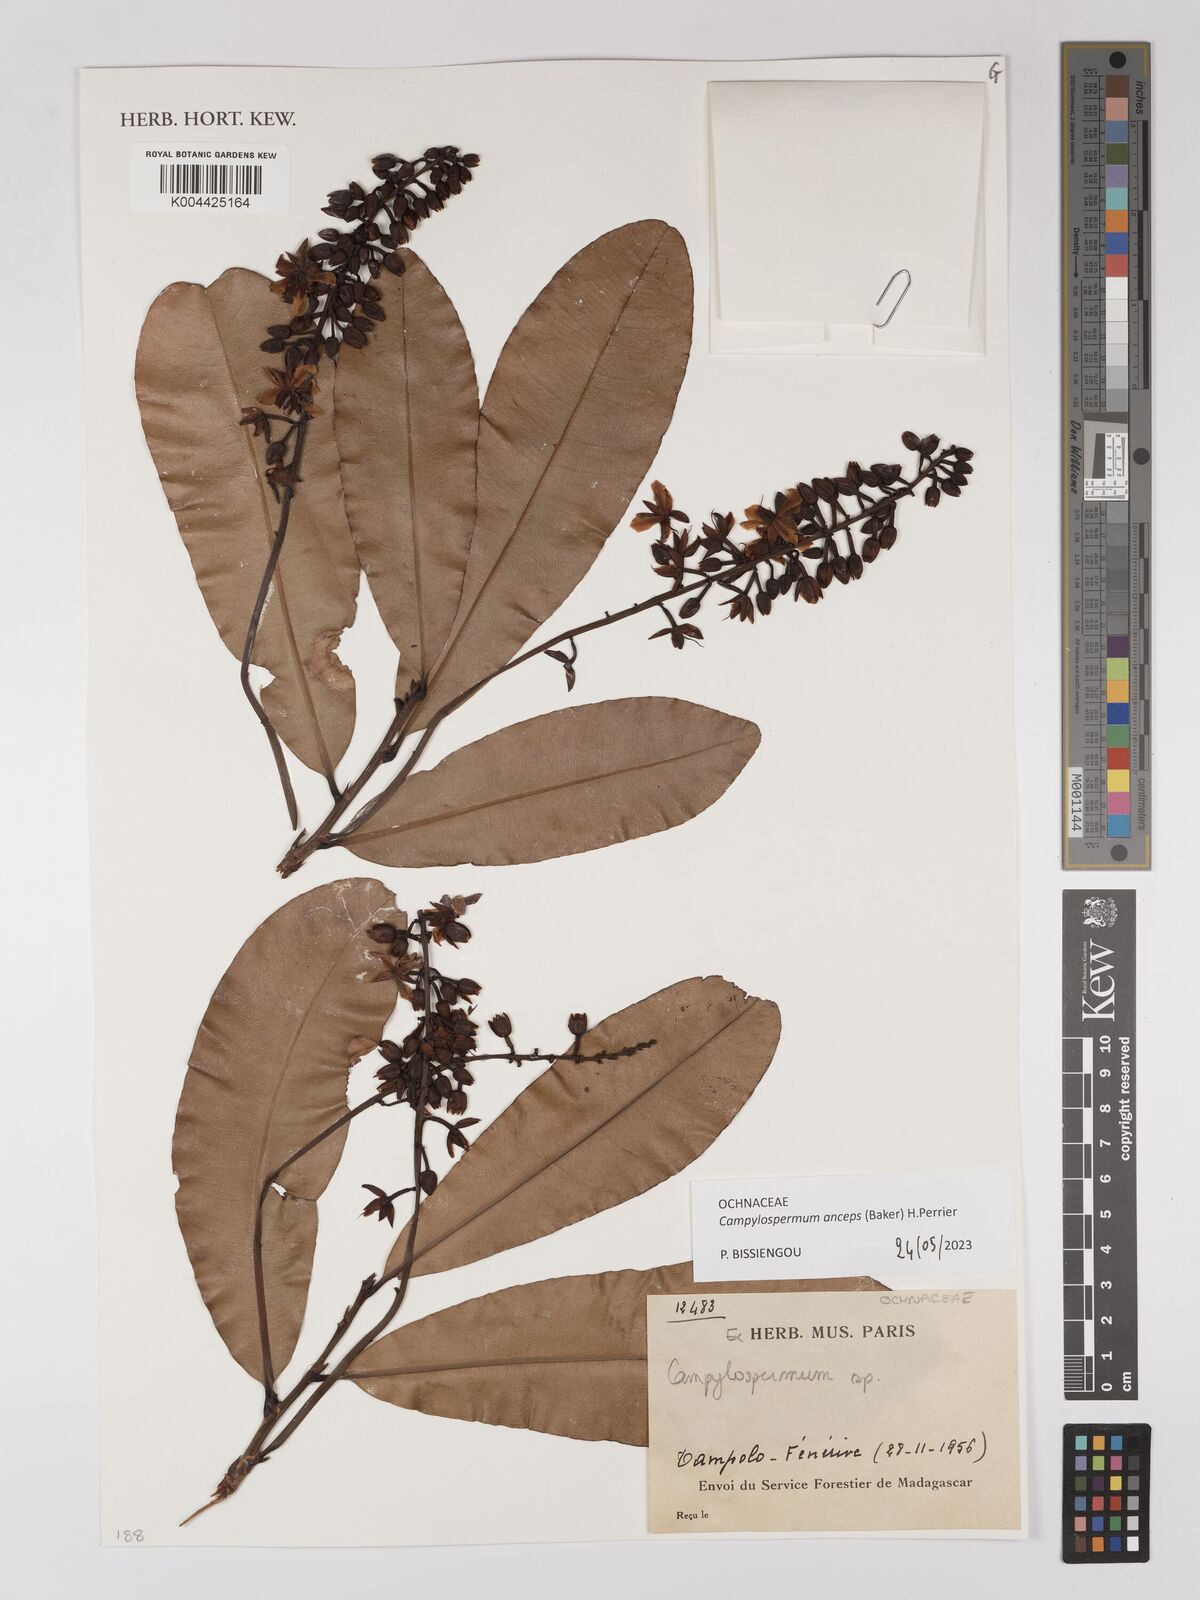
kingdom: Plantae
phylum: Tracheophyta
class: Magnoliopsida
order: Malpighiales
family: Ochnaceae
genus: Campylospermum
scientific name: Campylospermum
